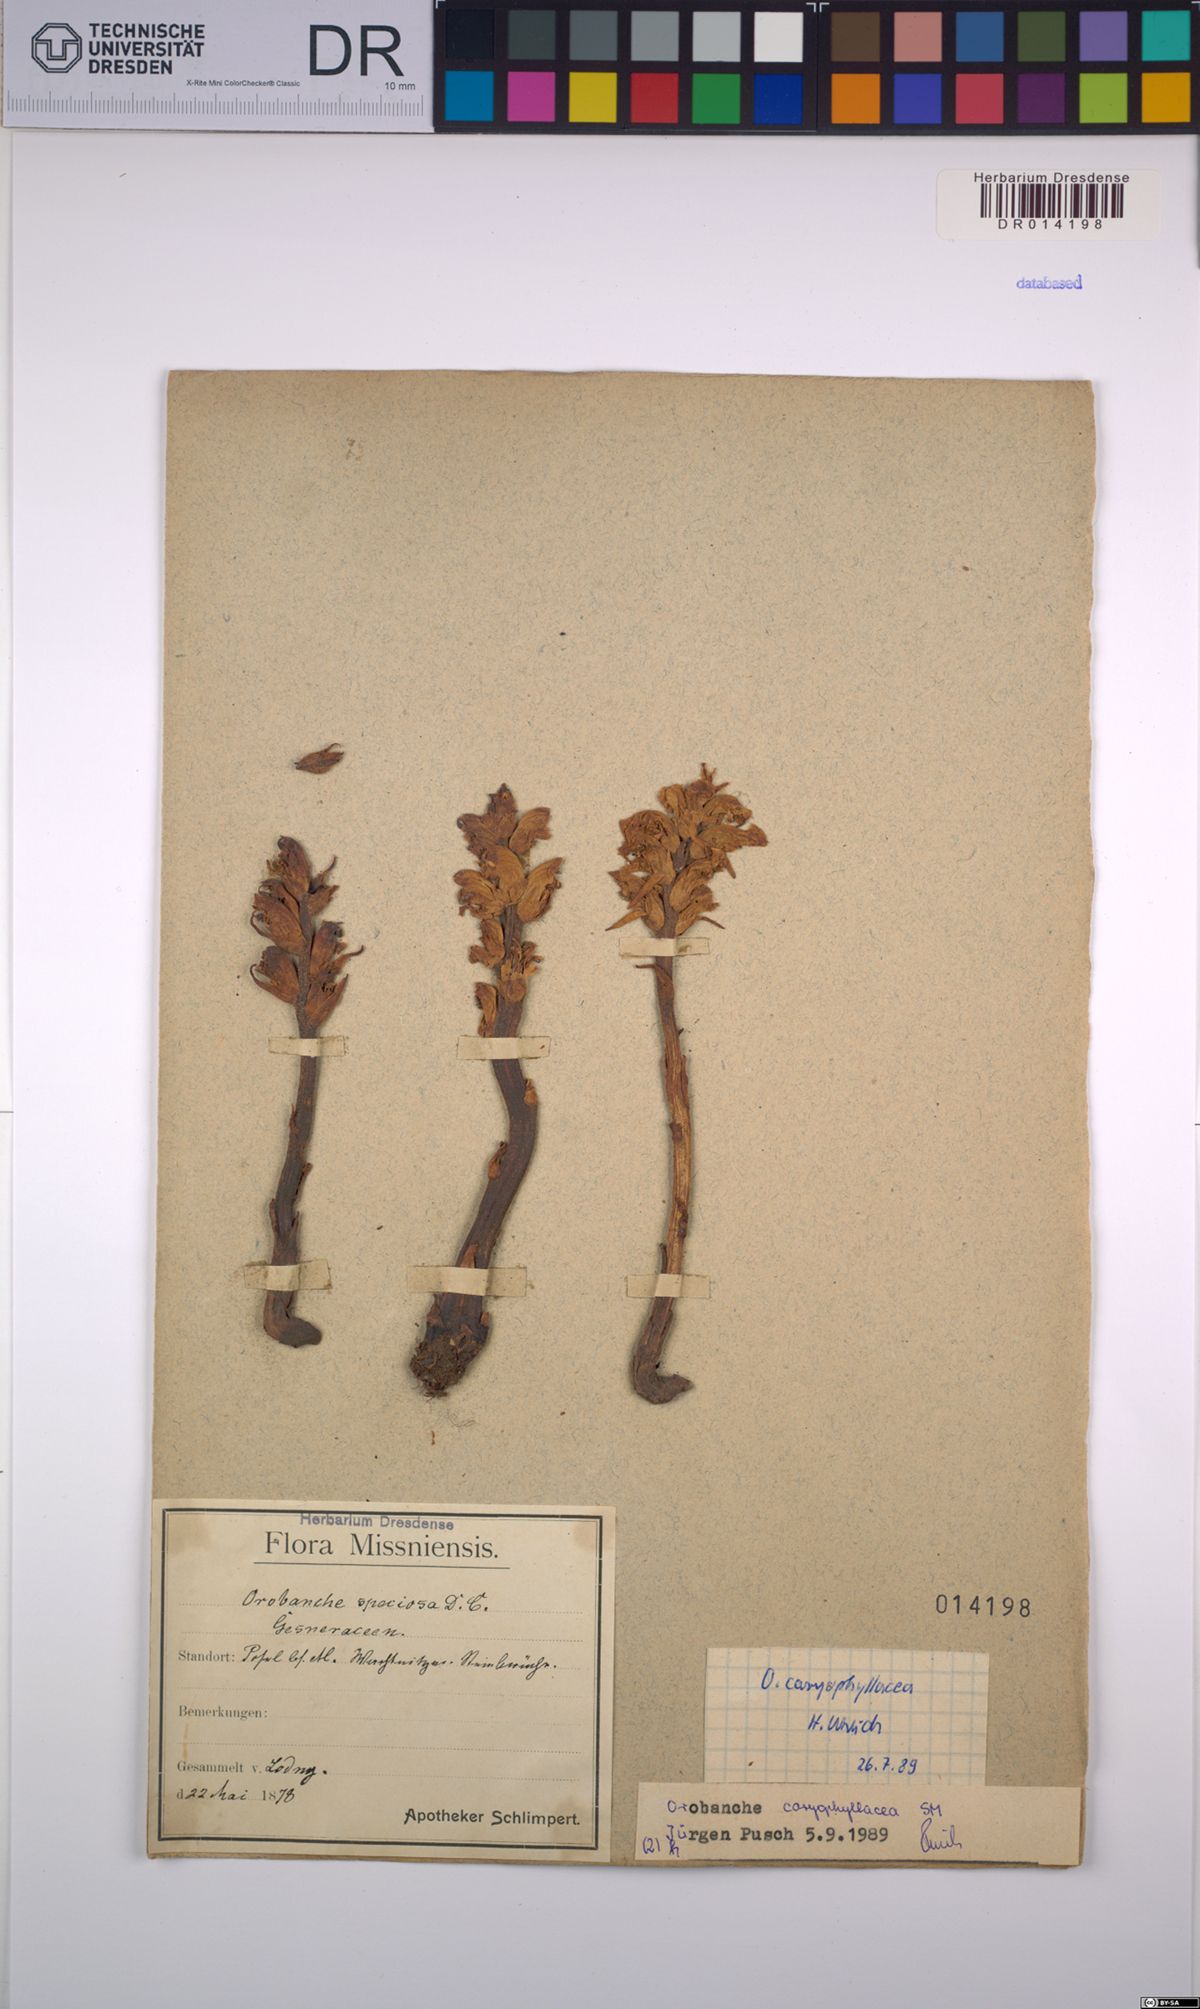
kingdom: Plantae
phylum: Tracheophyta
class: Magnoliopsida
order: Lamiales
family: Orobanchaceae
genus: Orobanche
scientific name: Orobanche caryophyllacea
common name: Bedstraw broomrape
